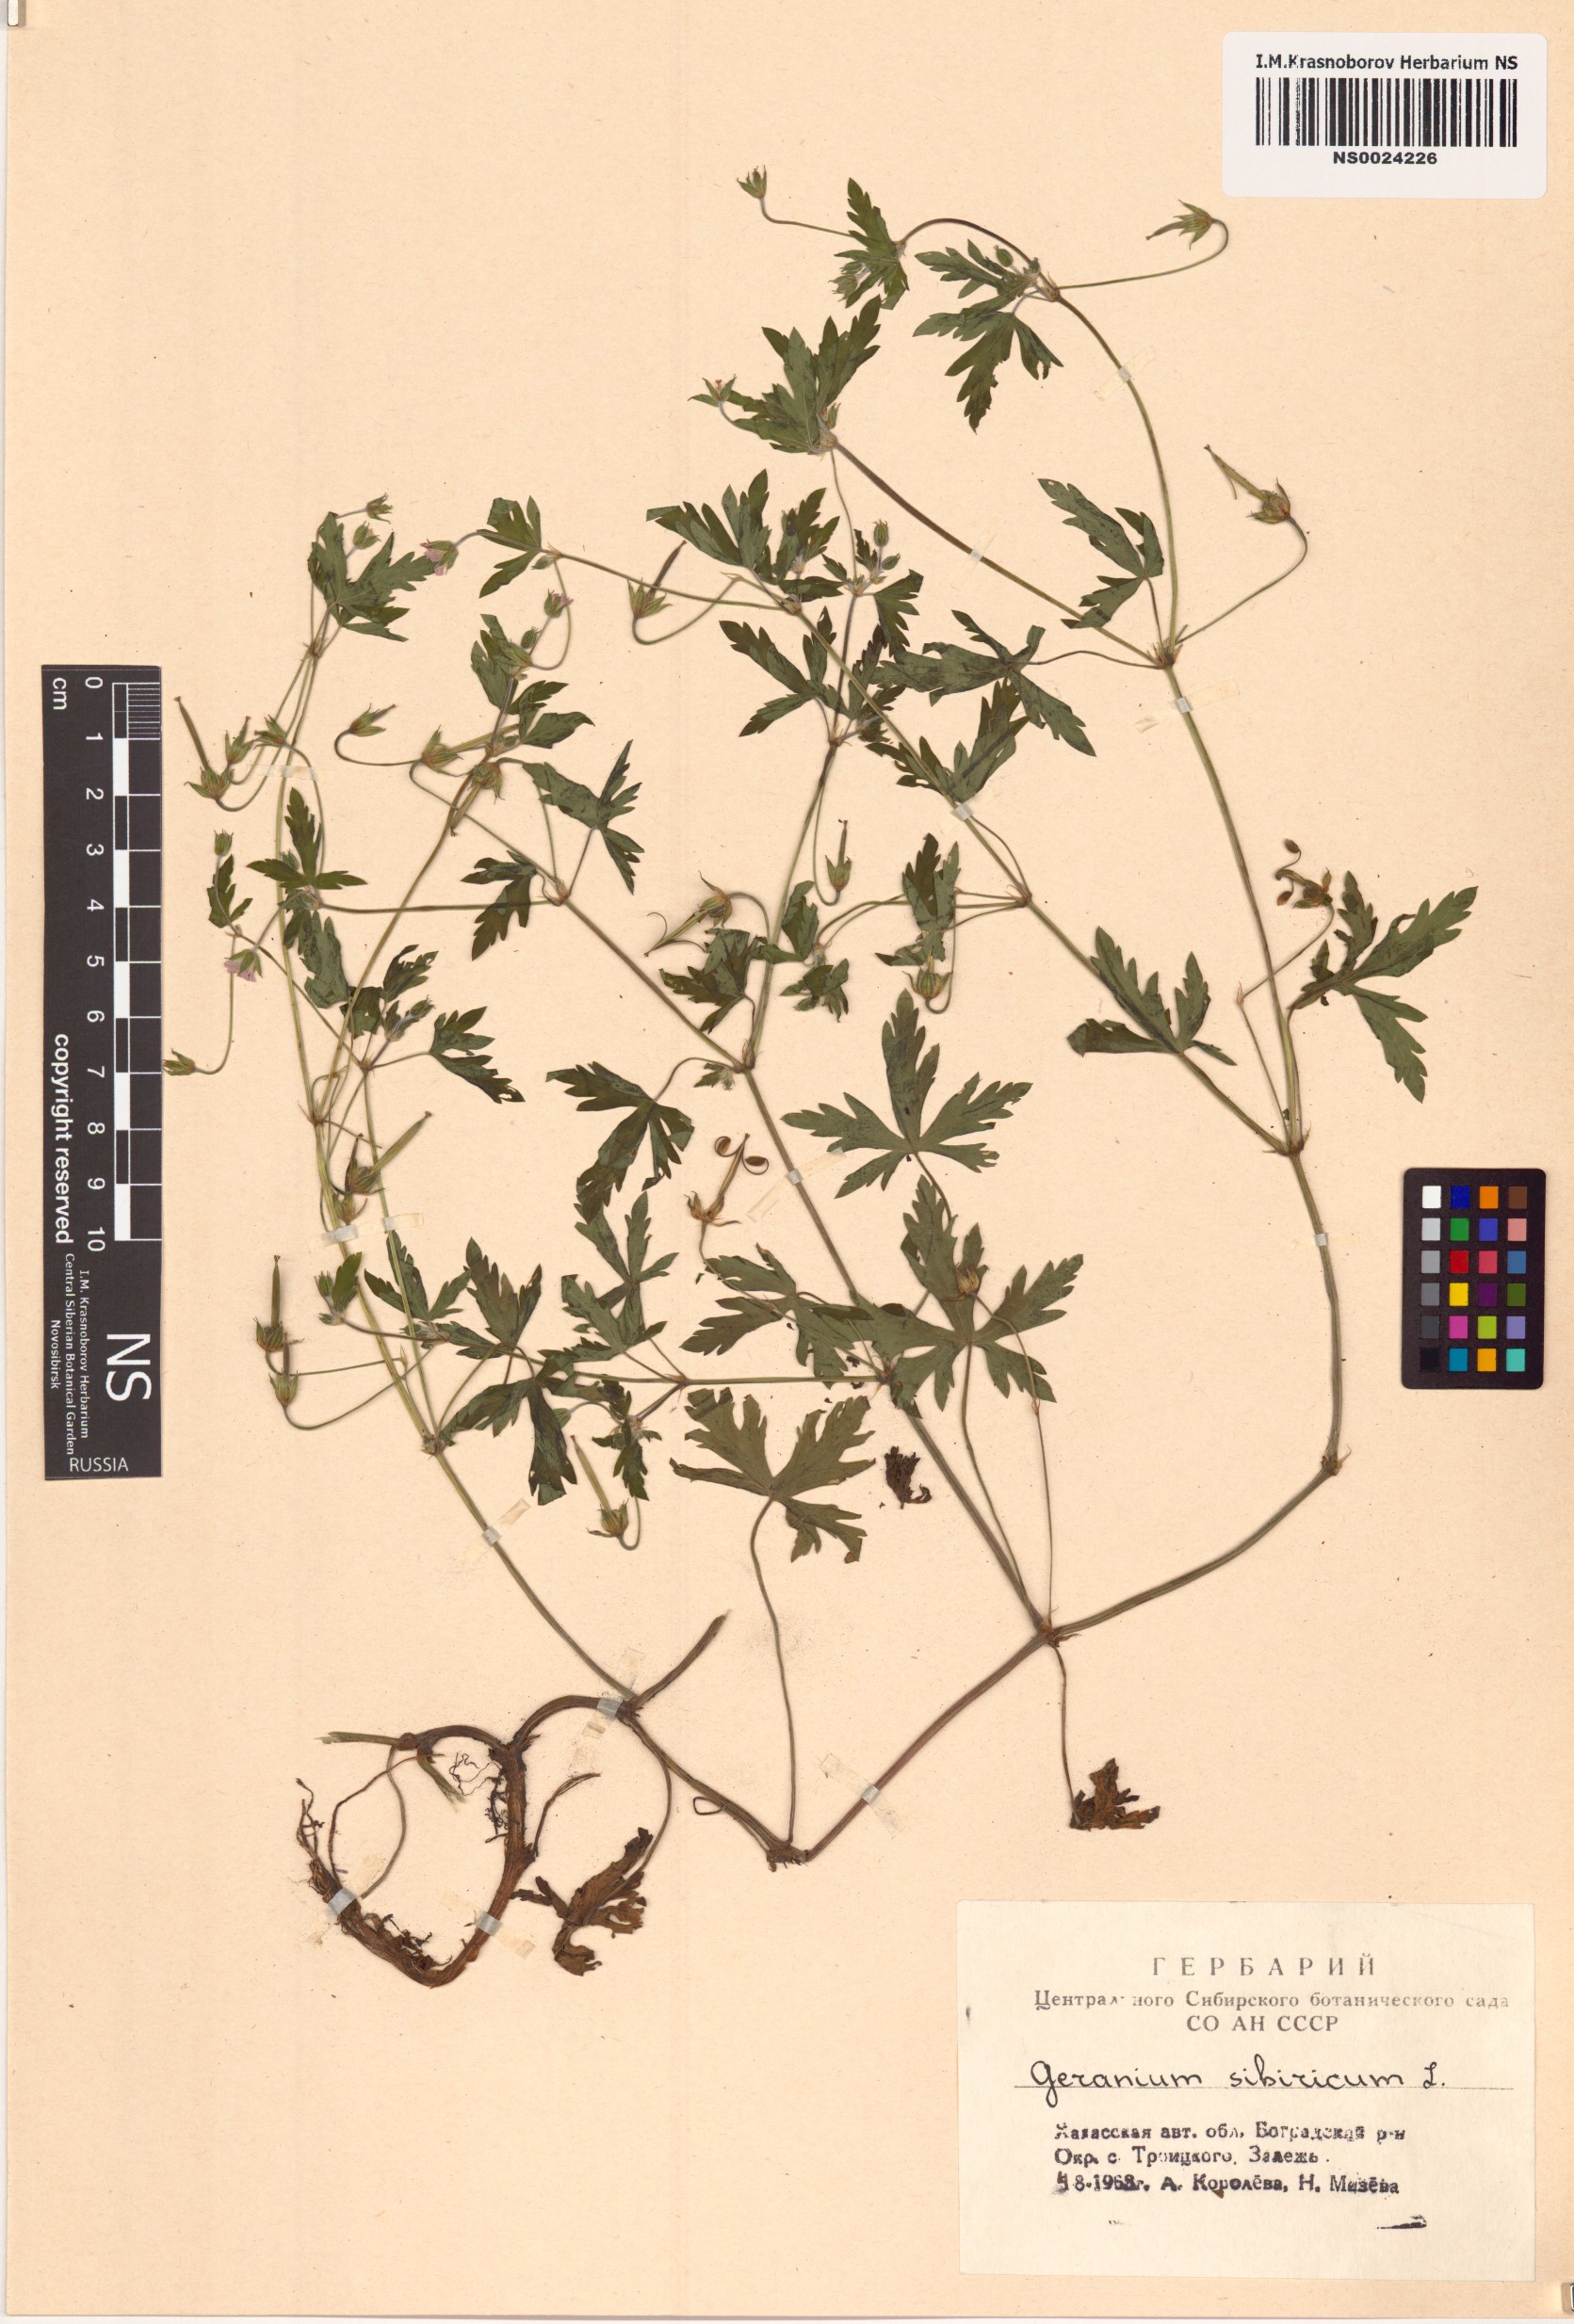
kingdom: Plantae
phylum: Tracheophyta
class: Magnoliopsida
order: Geraniales
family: Geraniaceae
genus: Geranium
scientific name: Geranium sibiricum
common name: Siberian crane's-bill
